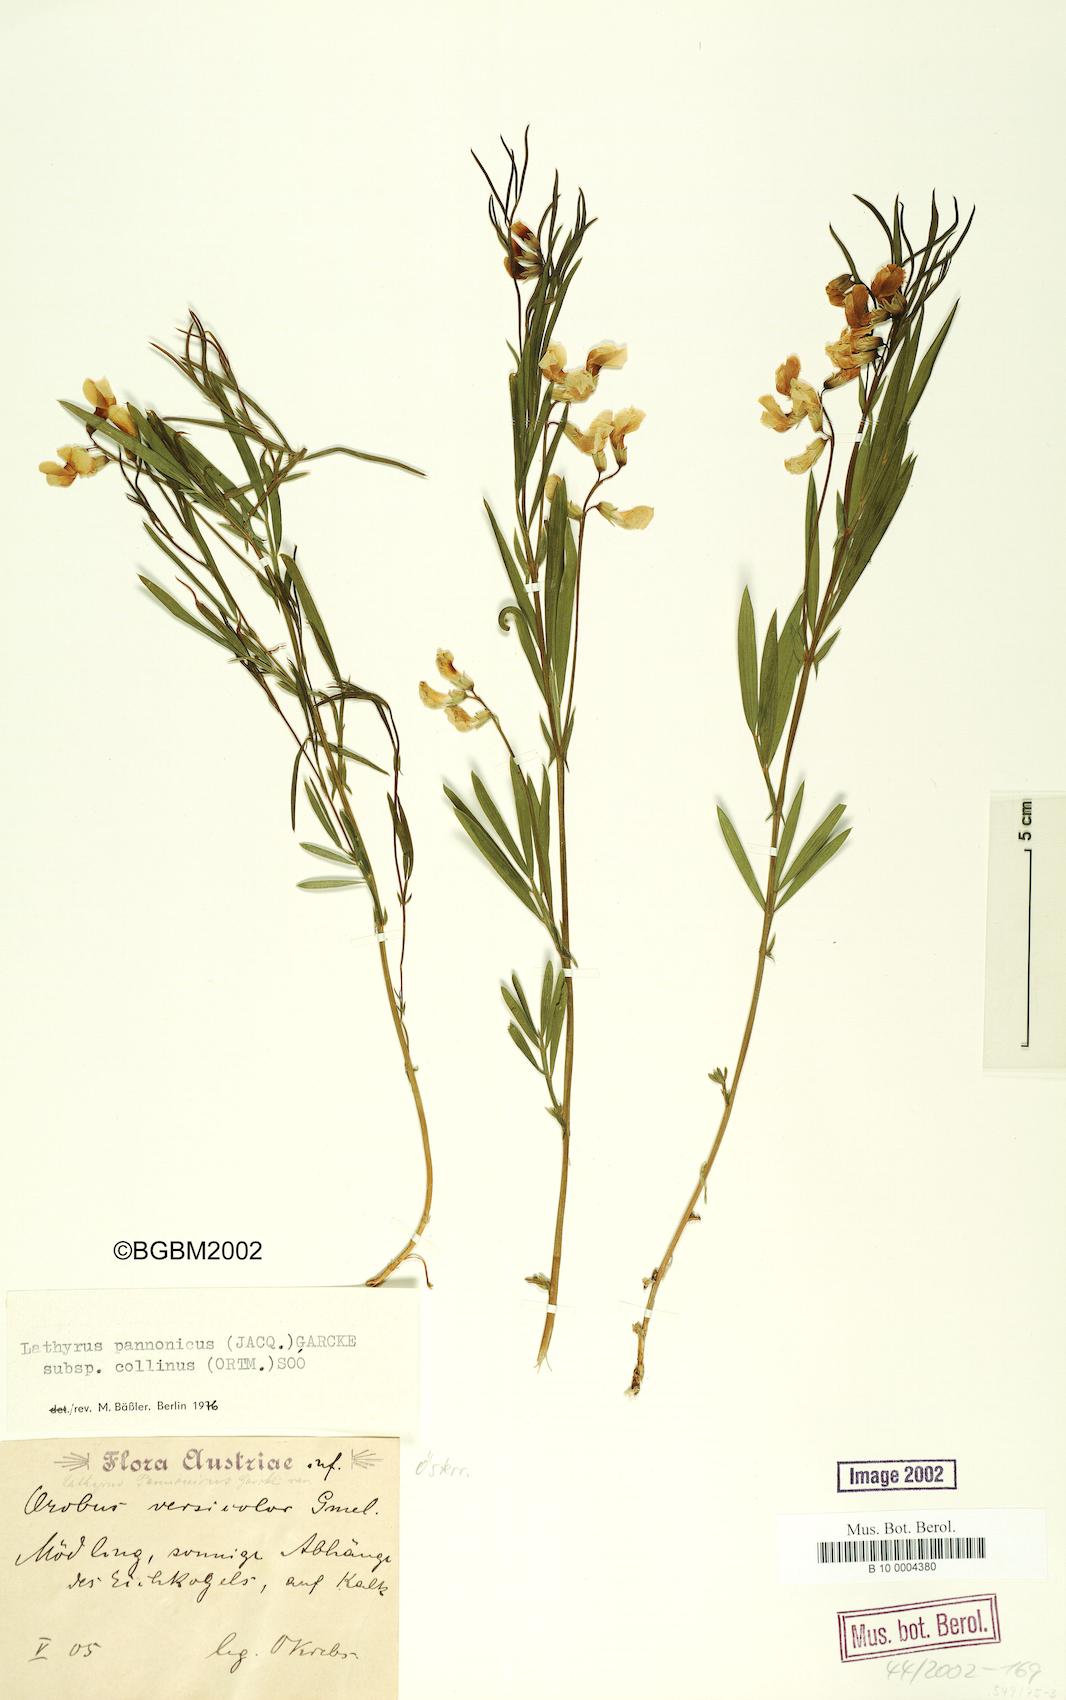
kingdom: Plantae
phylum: Tracheophyta
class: Magnoliopsida
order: Fabales
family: Fabaceae
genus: Lathyrus
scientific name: Lathyrus pannonicus
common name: Pea
